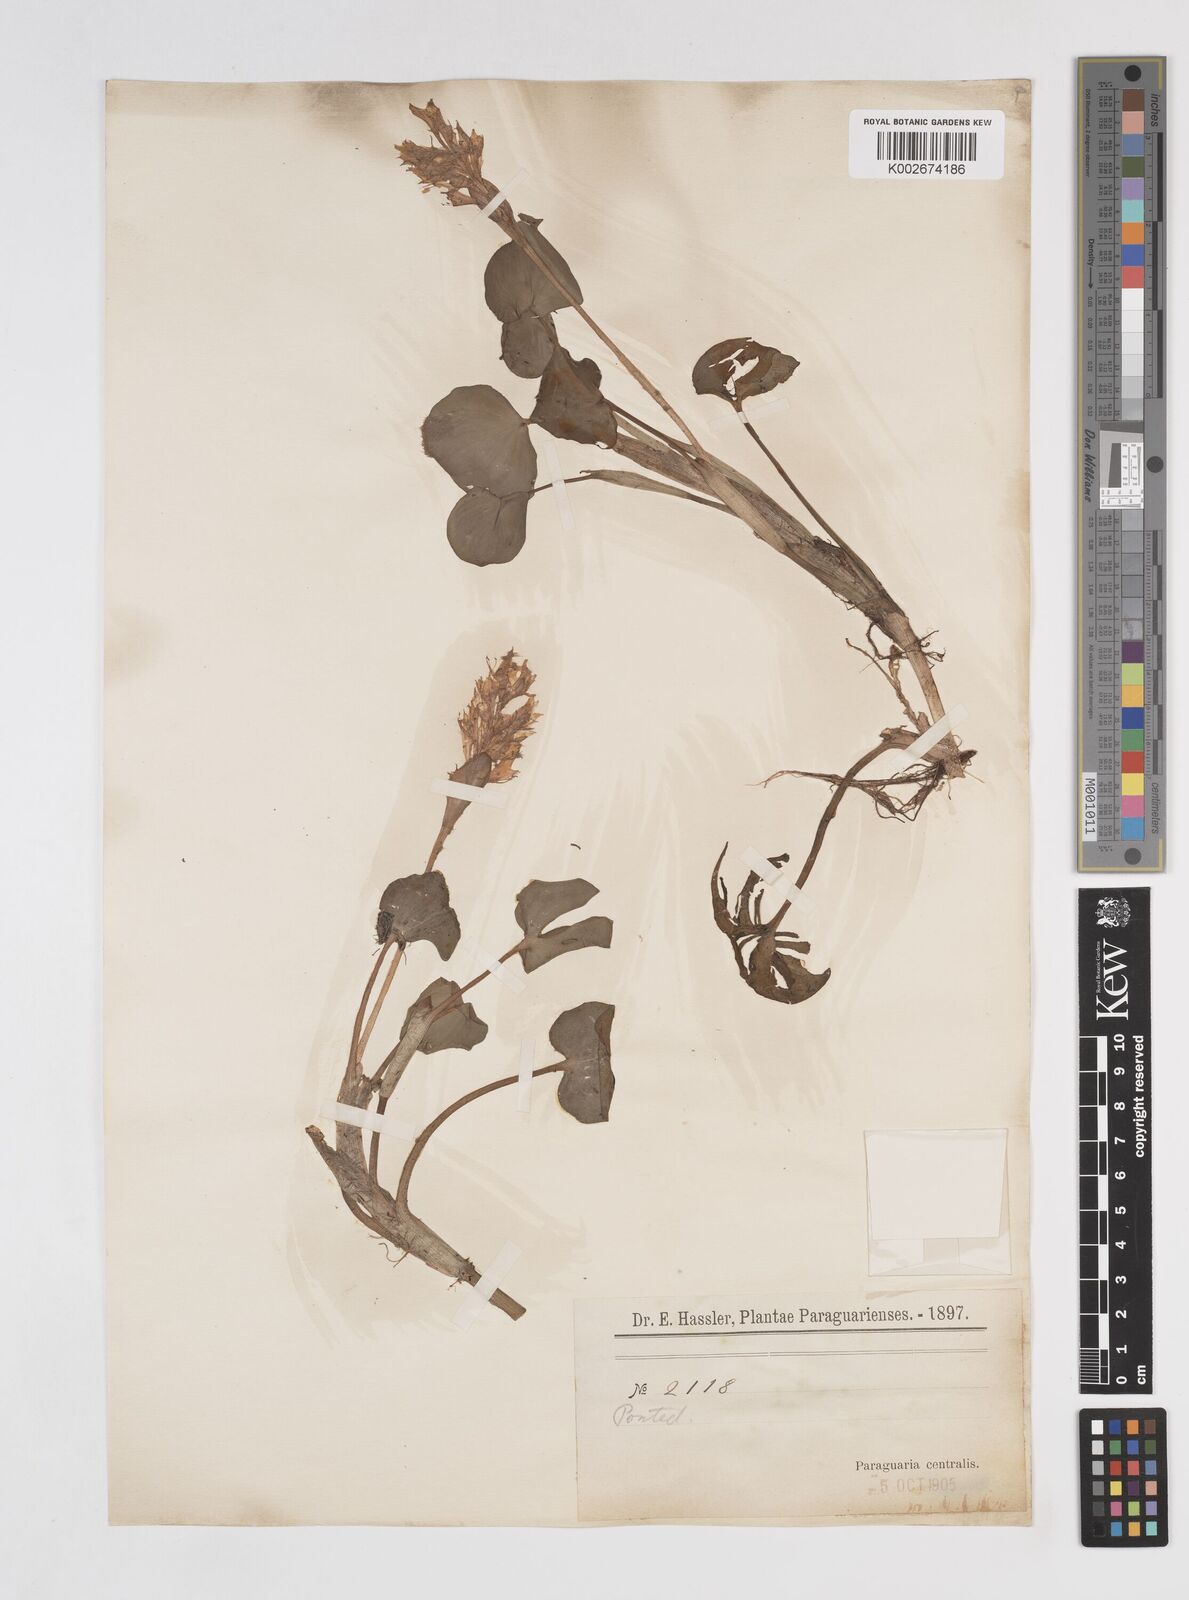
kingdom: Plantae
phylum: Tracheophyta
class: Liliopsida
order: Commelinales
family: Pontederiaceae
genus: Pontederia
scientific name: Pontederia subovata
